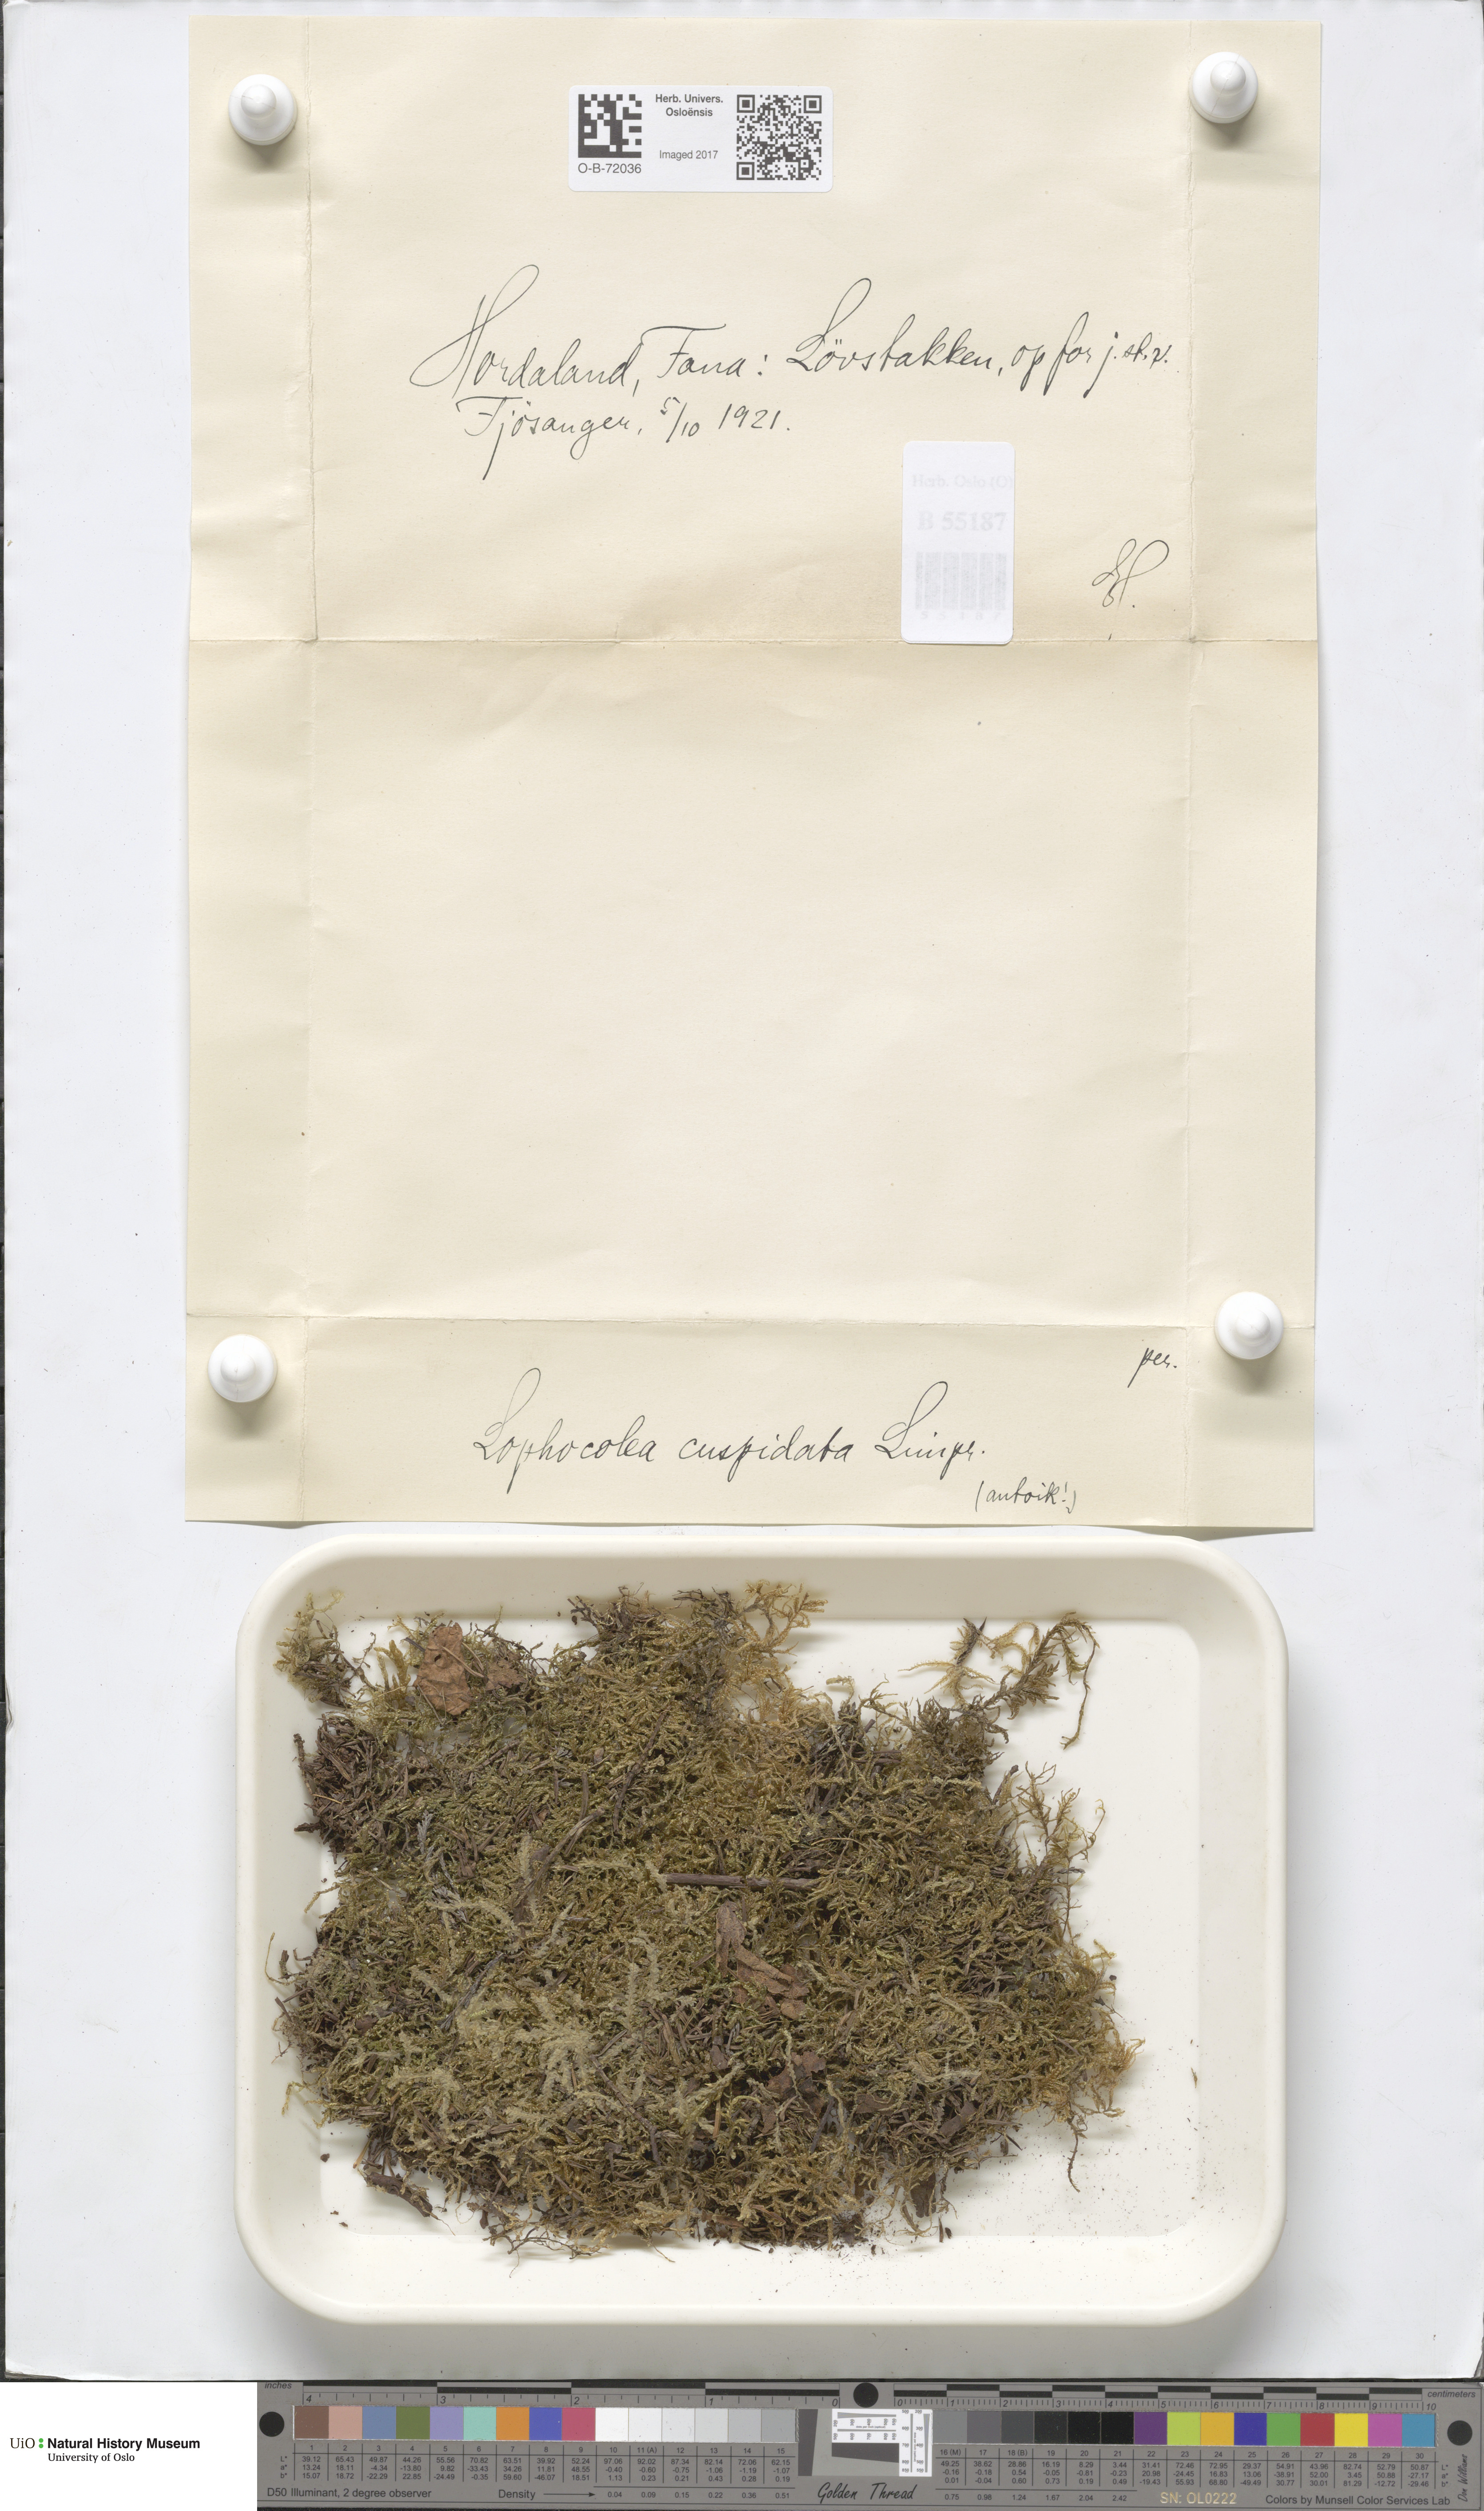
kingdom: Plantae
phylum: Marchantiophyta
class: Jungermanniopsida
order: Jungermanniales
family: Lophocoleaceae
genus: Lophocolea
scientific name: Lophocolea coadunata
